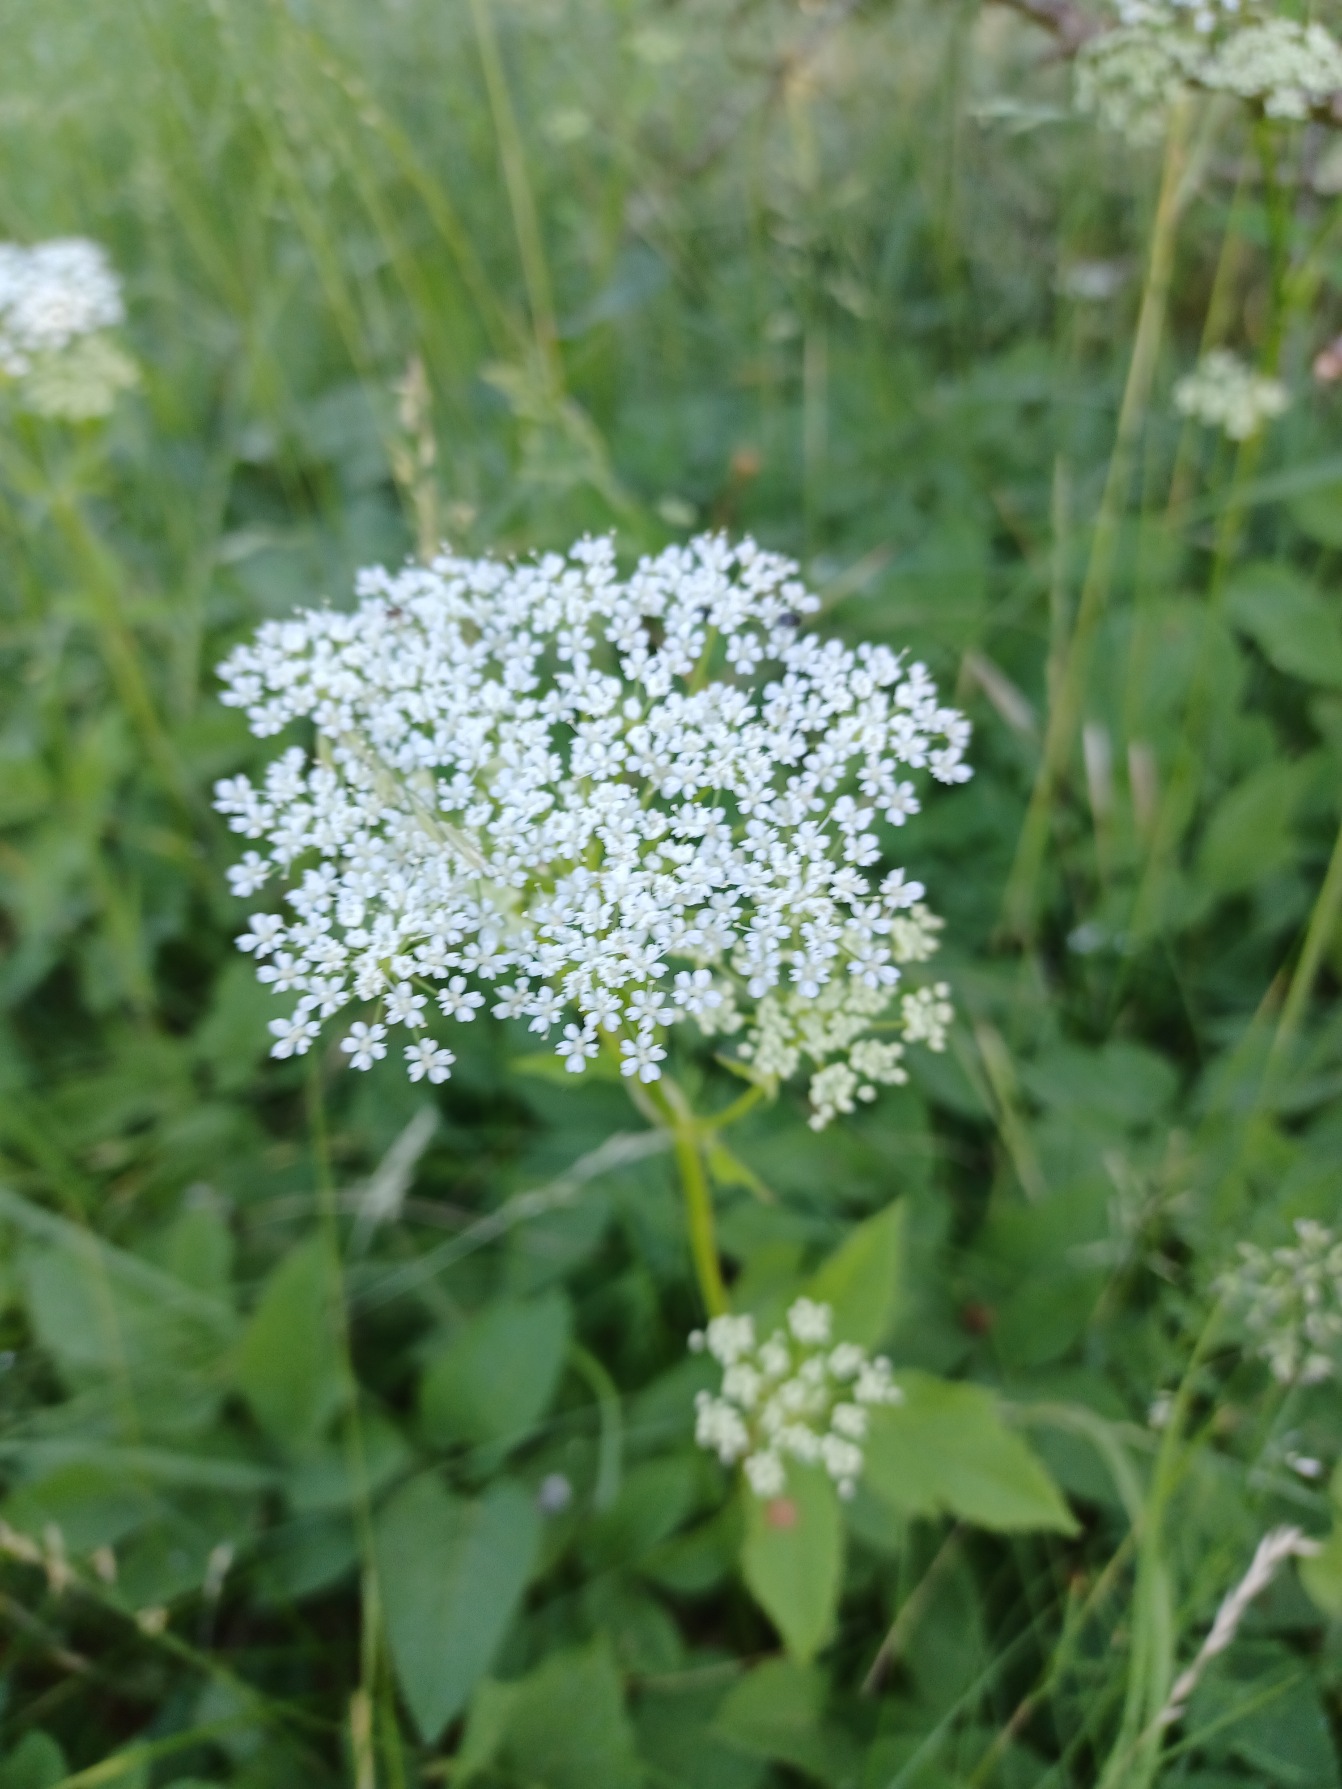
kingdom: Plantae
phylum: Tracheophyta
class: Magnoliopsida
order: Apiales
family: Apiaceae
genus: Aegopodium
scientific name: Aegopodium podagraria
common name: Skvalderkål
